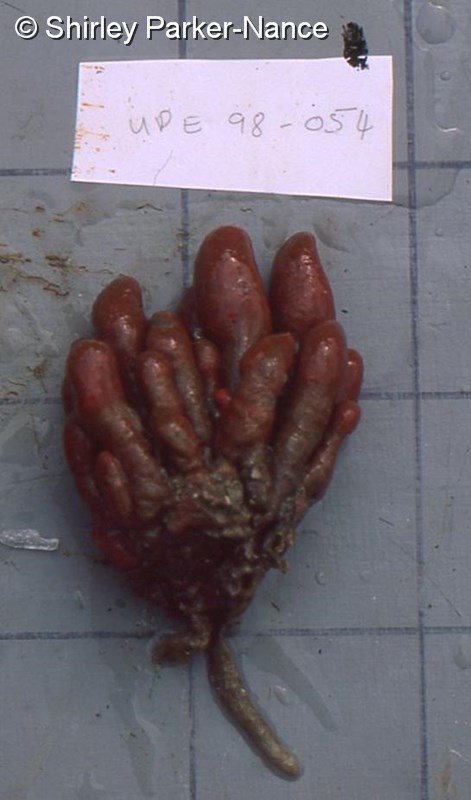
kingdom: Animalia
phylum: Chordata
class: Ascidiacea
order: Aplousobranchia
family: Pseudodistomidae
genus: Pseudodistoma
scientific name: Pseudodistoma africanum
